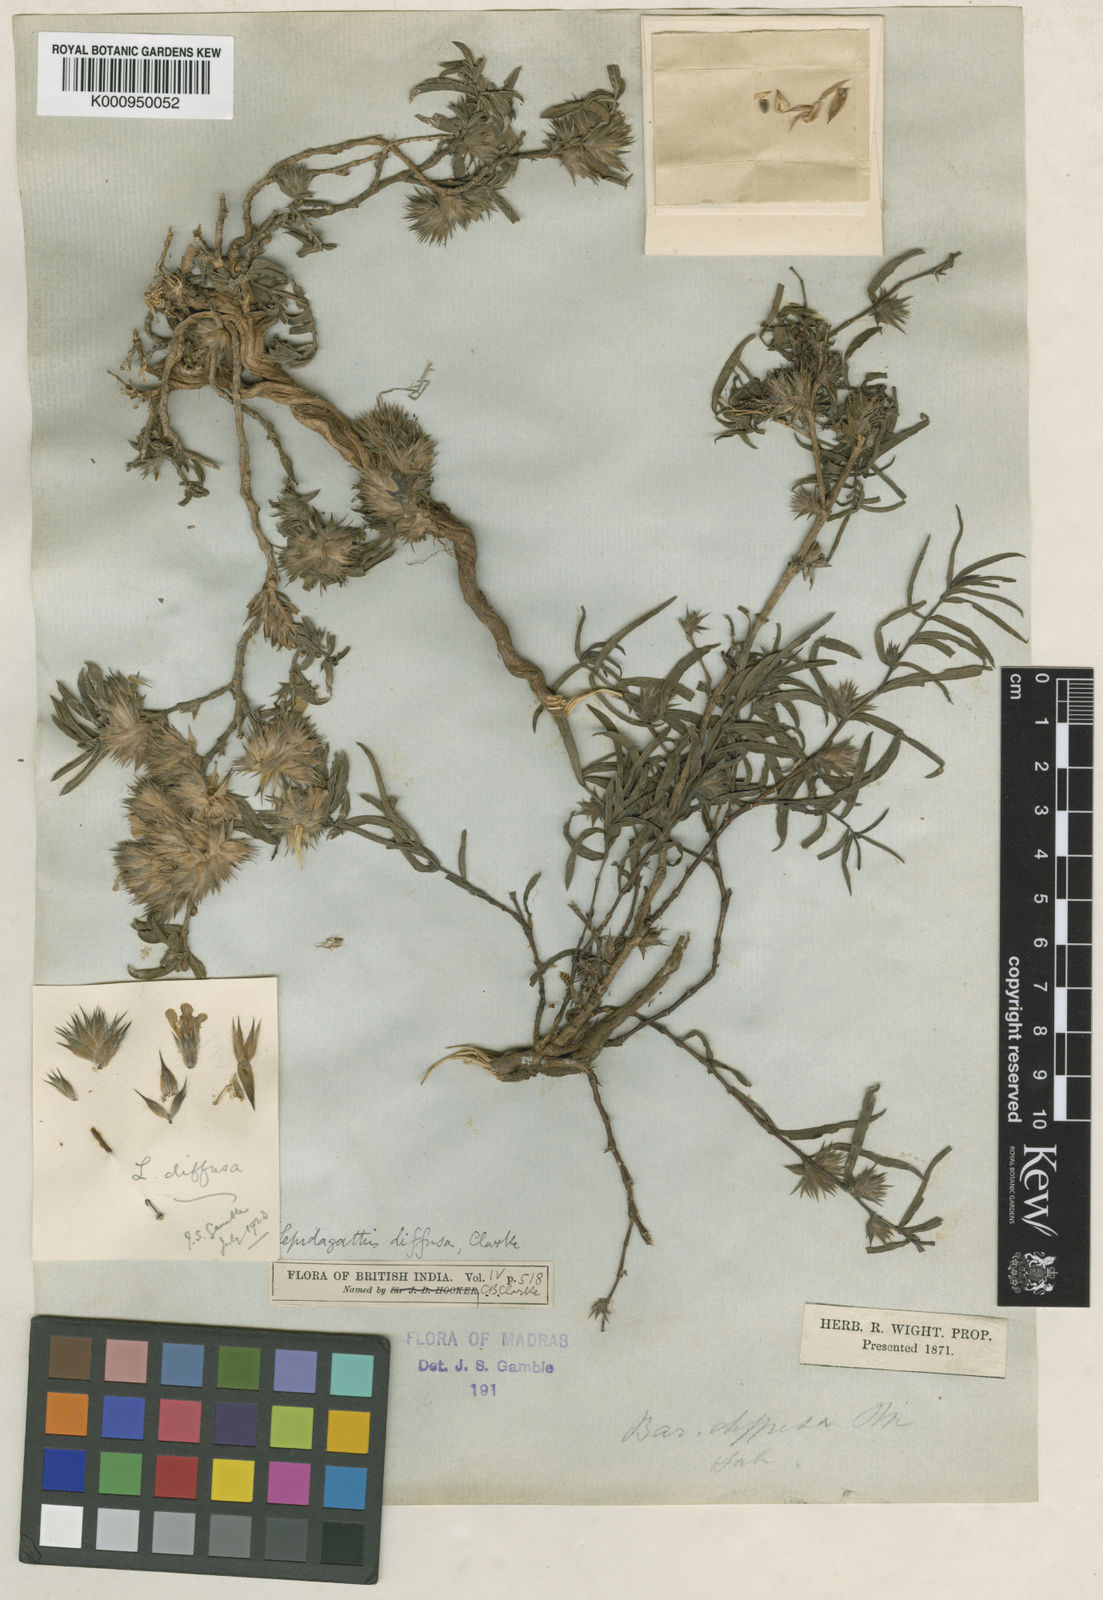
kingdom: Plantae
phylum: Tracheophyta
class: Magnoliopsida
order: Lamiales
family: Acanthaceae
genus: Lepidagathis
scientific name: Lepidagathis diffusa
